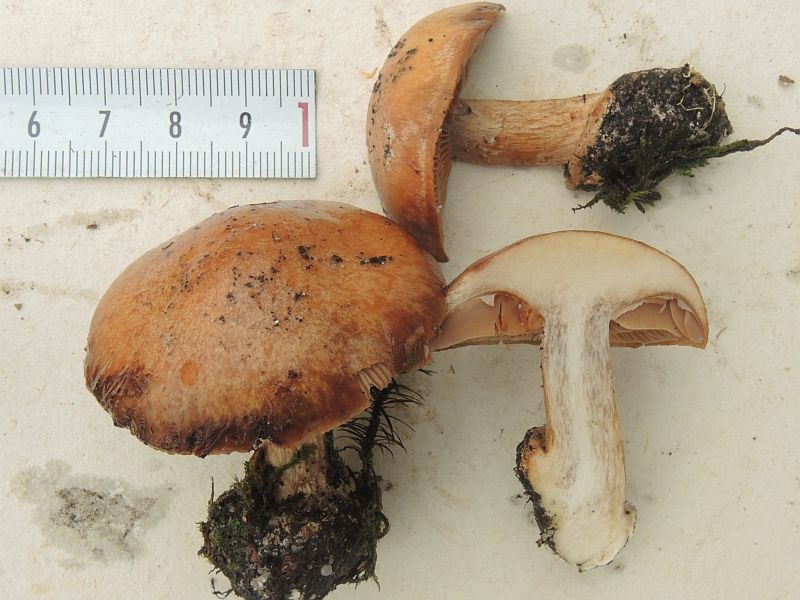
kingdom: Fungi
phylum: Basidiomycota
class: Agaricomycetes
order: Agaricales
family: Cortinariaceae
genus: Thaxterogaster
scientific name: Thaxterogaster talus
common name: knogle-slørhat
